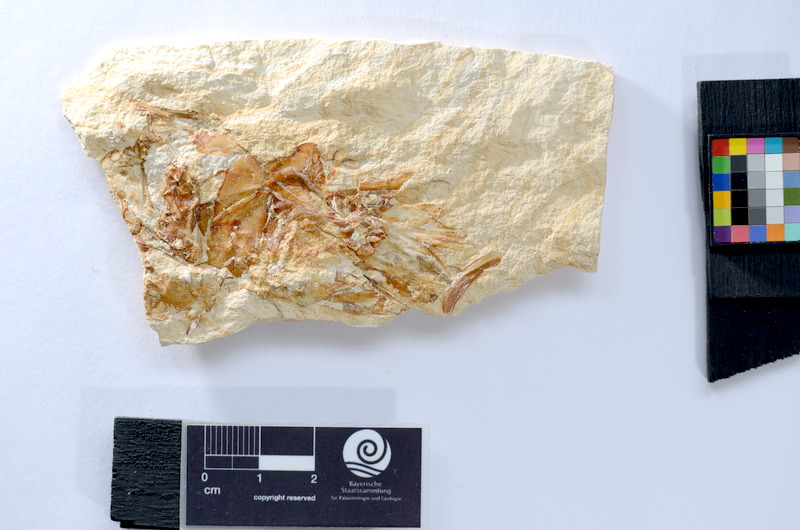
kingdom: Animalia
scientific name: Animalia
